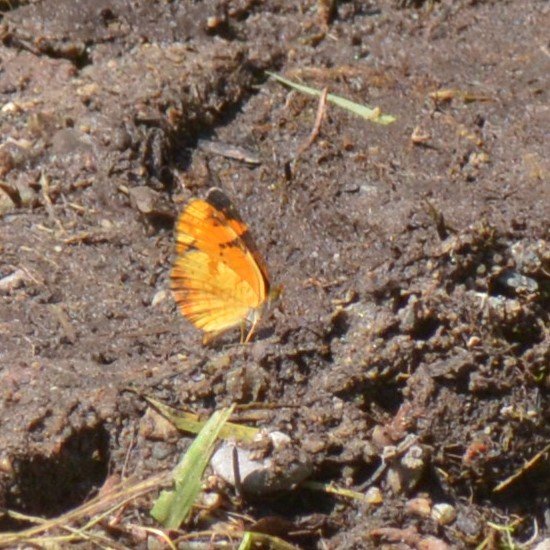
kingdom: Animalia
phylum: Arthropoda
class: Insecta
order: Lepidoptera
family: Nymphalidae
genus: Phyciodes
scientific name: Phyciodes tharos
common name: Northern Crescent
